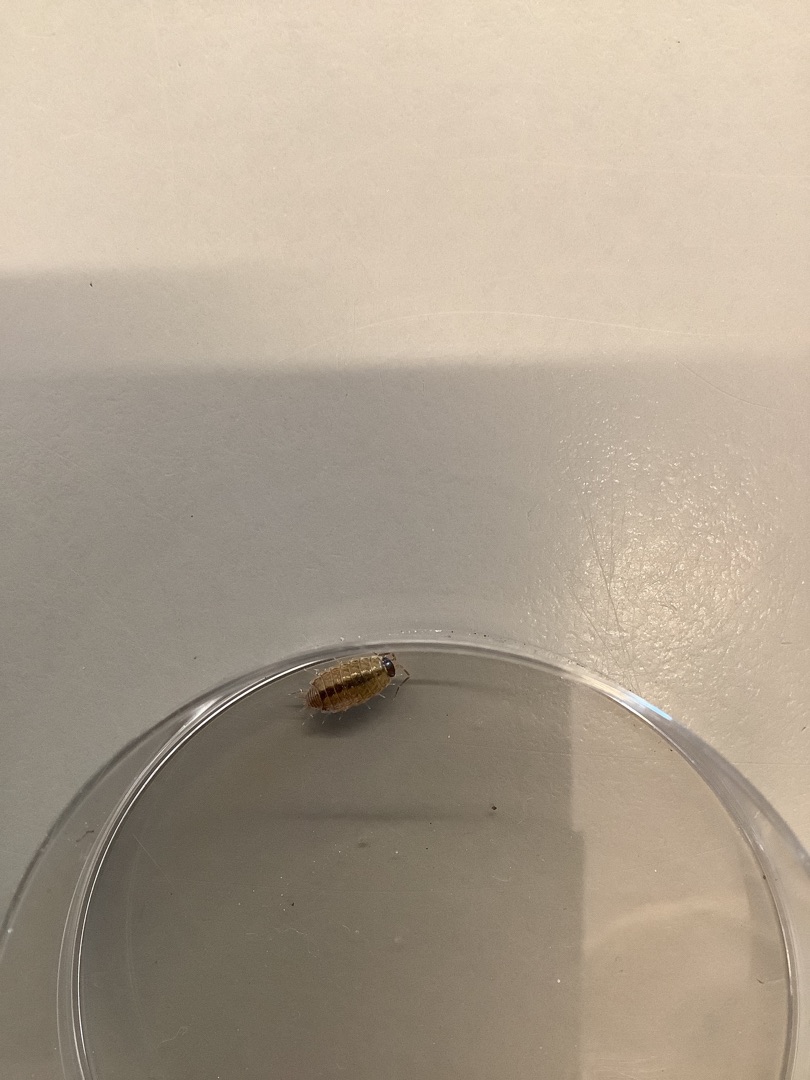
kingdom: Animalia
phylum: Arthropoda
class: Malacostraca
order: Isopoda
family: Philosciidae
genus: Philoscia
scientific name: Philoscia muscorum
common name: Langbenet bænkebider
